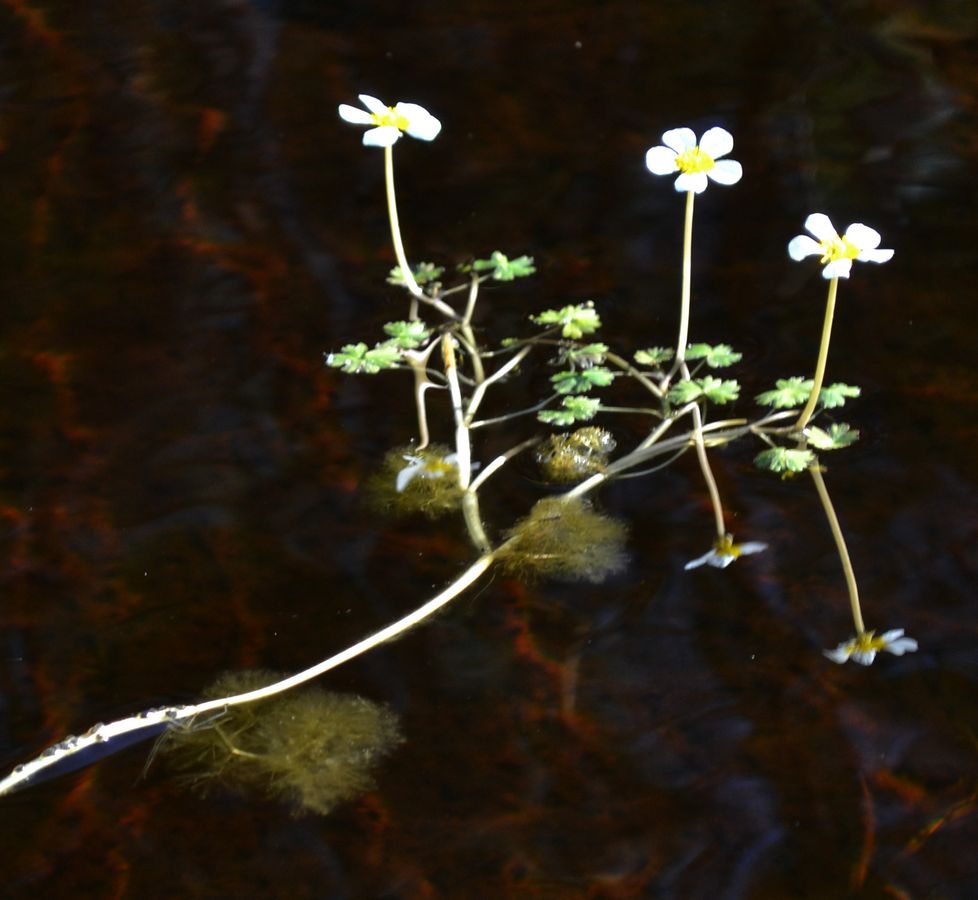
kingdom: Plantae
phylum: Tracheophyta
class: Magnoliopsida
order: Ranunculales
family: Ranunculaceae
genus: Ranunculus
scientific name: Ranunculus schmalhausenii
